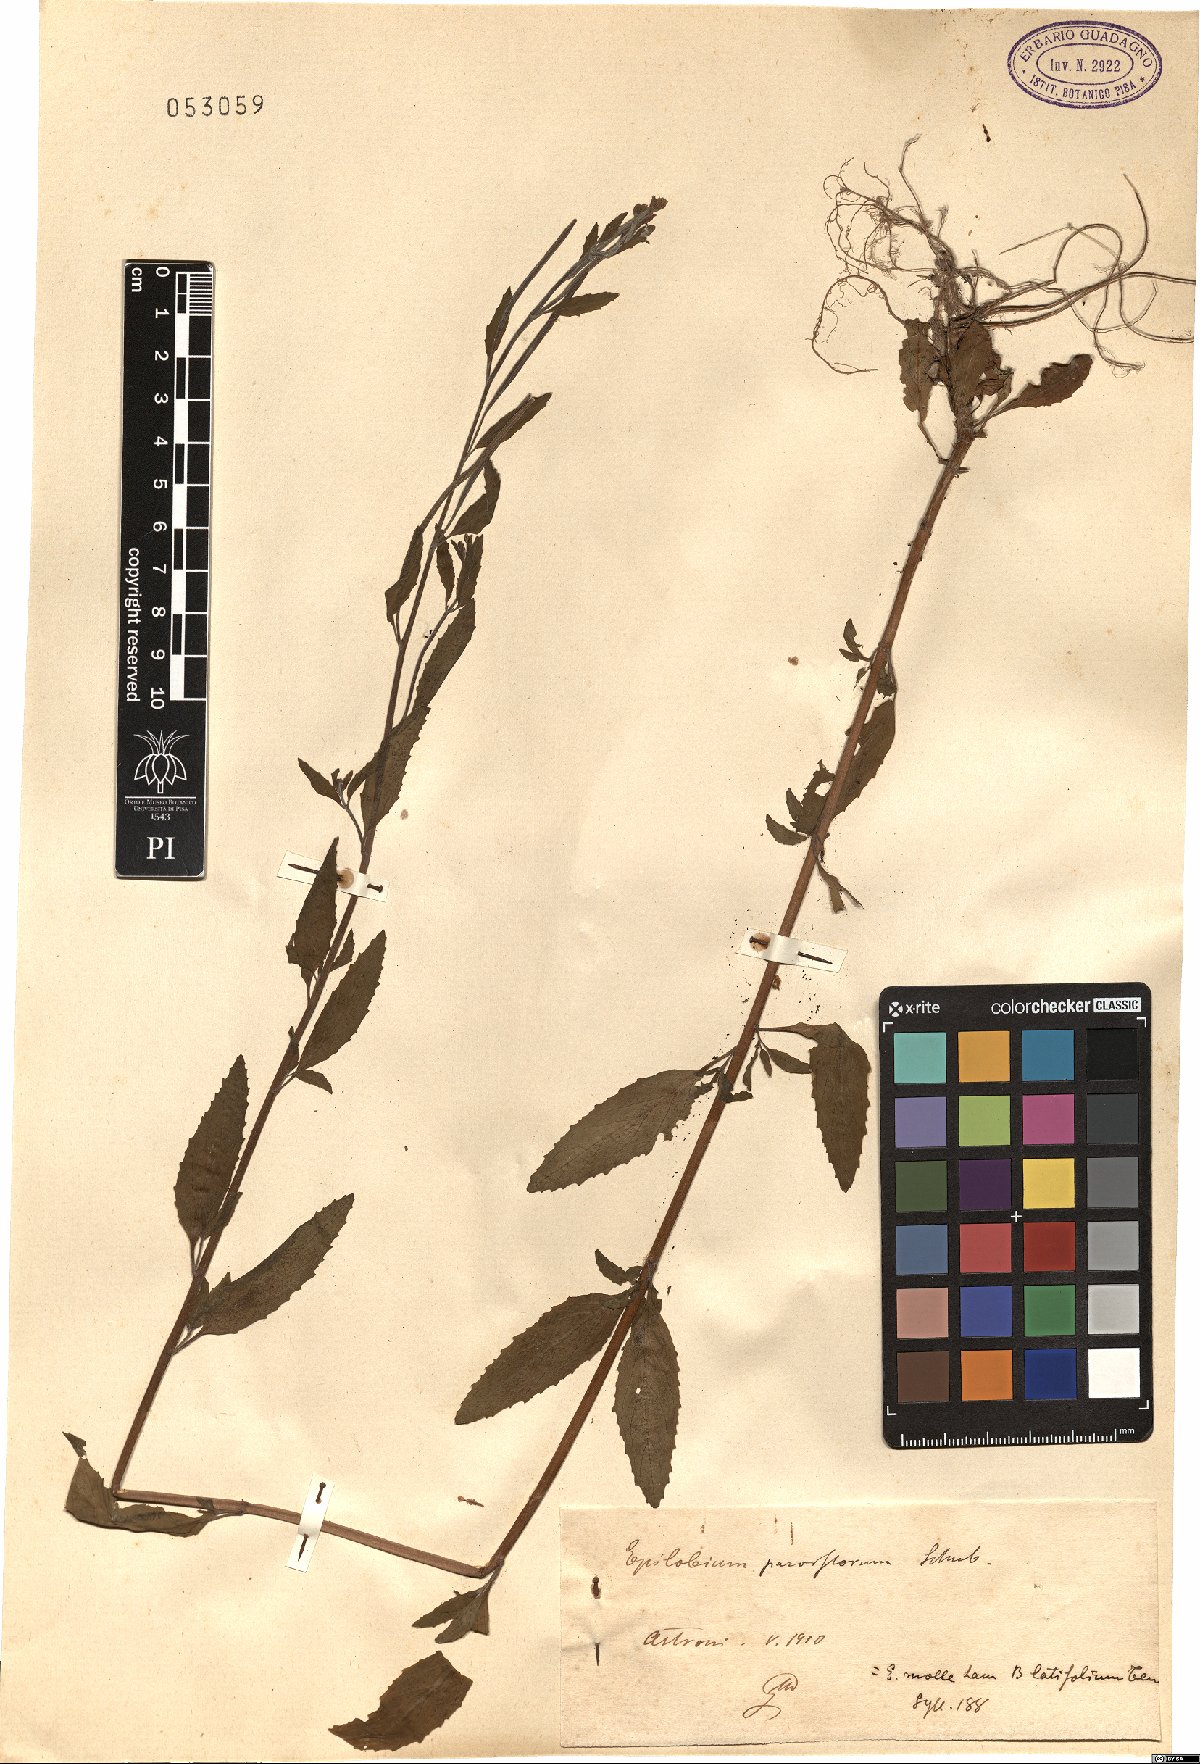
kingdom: Plantae
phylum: Tracheophyta
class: Magnoliopsida
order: Myrtales
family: Onagraceae
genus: Epilobium
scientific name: Epilobium parviflorum
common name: Hoary willowherb
